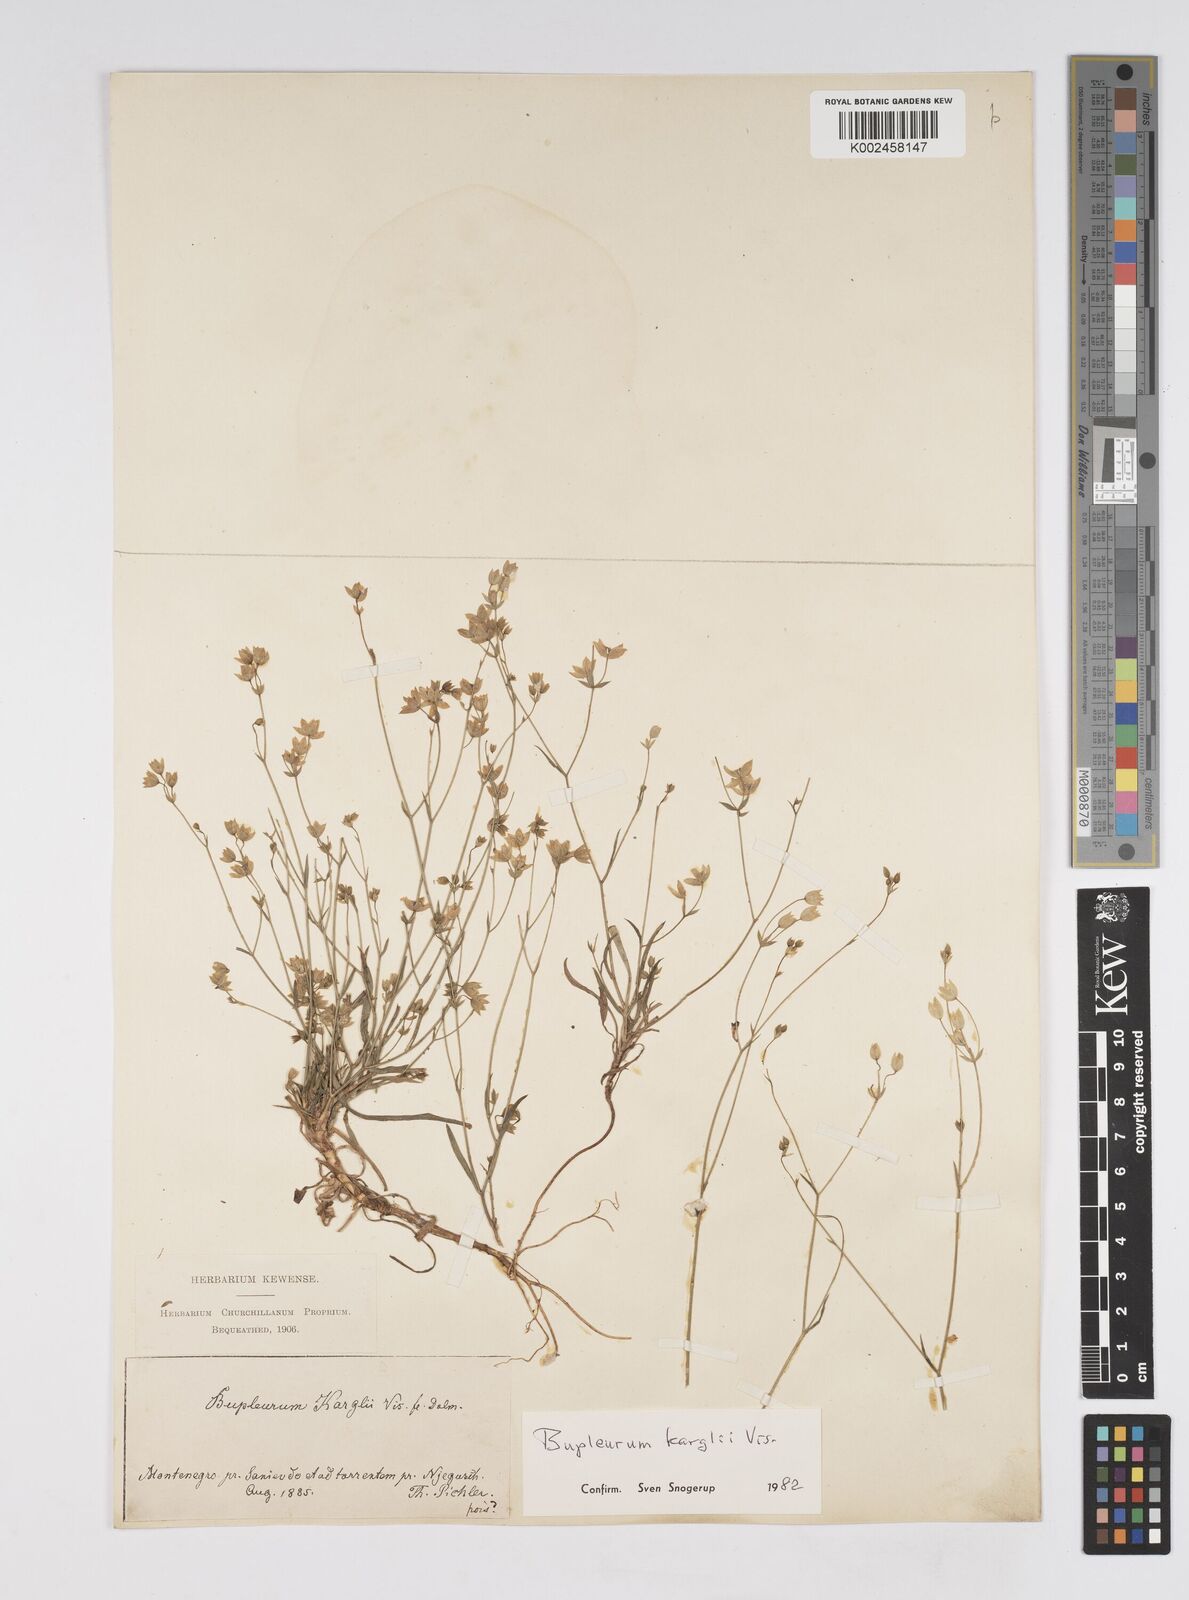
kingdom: Plantae
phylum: Tracheophyta
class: Magnoliopsida
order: Apiales
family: Apiaceae
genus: Bupleurum
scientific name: Bupleurum karglii
